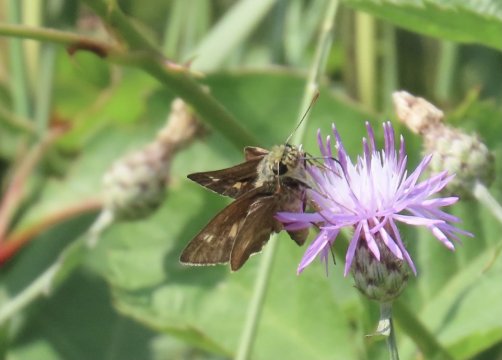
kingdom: Animalia
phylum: Arthropoda
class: Insecta
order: Lepidoptera
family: Hesperiidae
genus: Vernia
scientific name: Vernia verna
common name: Little Glassywing
